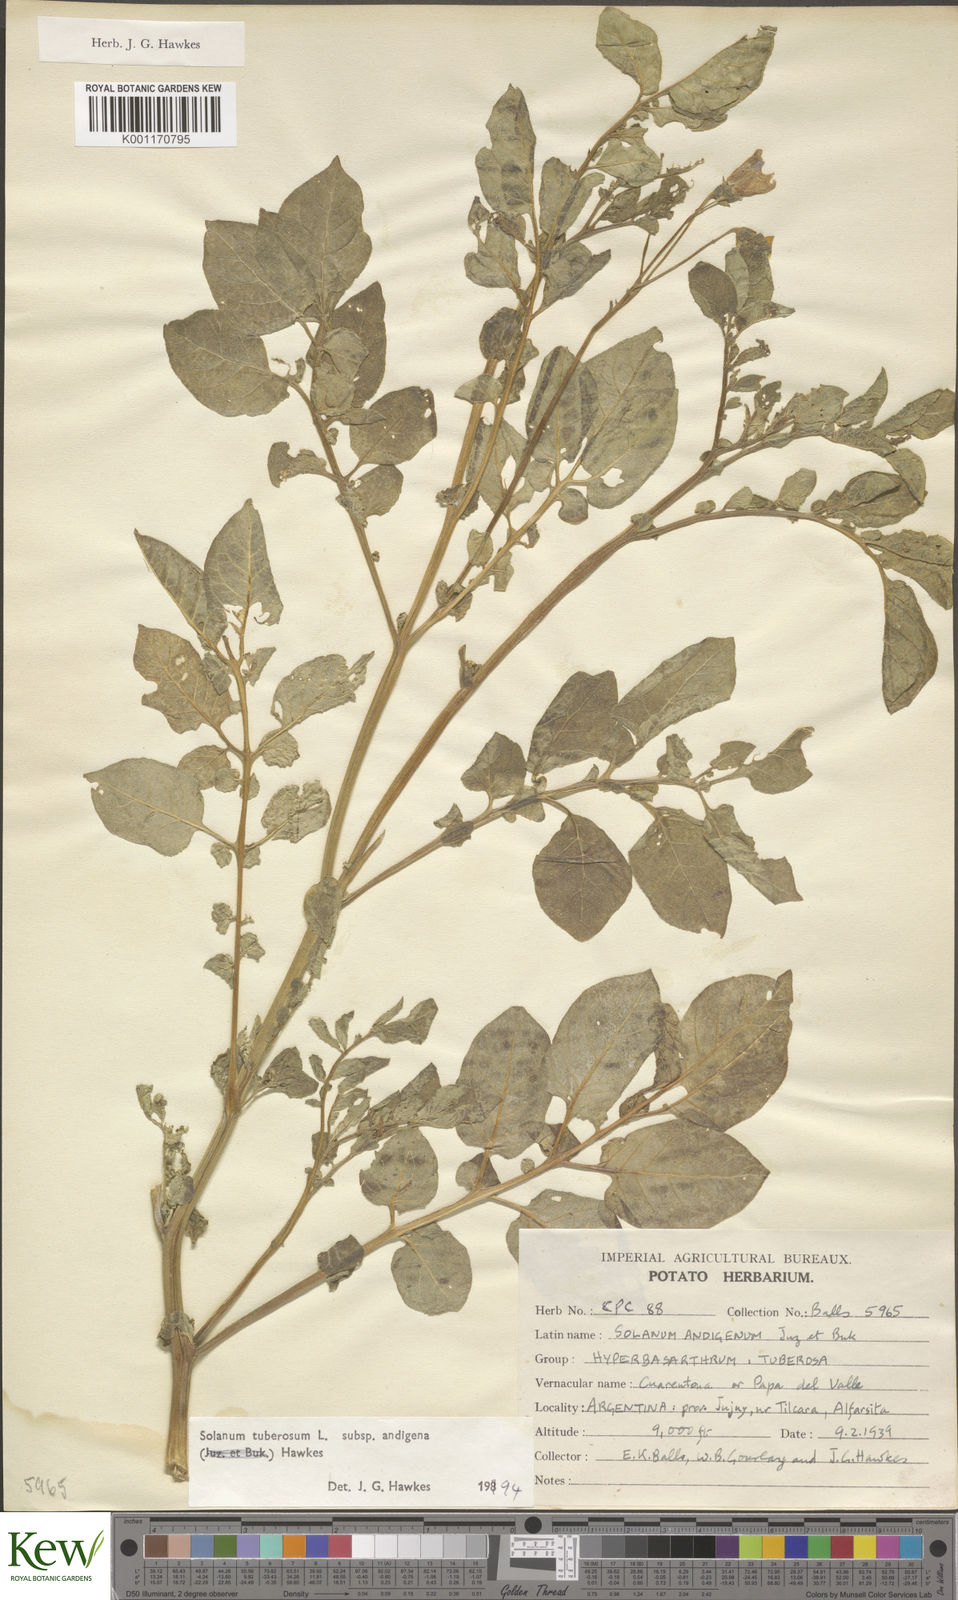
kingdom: Plantae
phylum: Tracheophyta
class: Magnoliopsida
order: Solanales
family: Solanaceae
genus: Solanum
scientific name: Solanum tuberosum
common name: Potato
